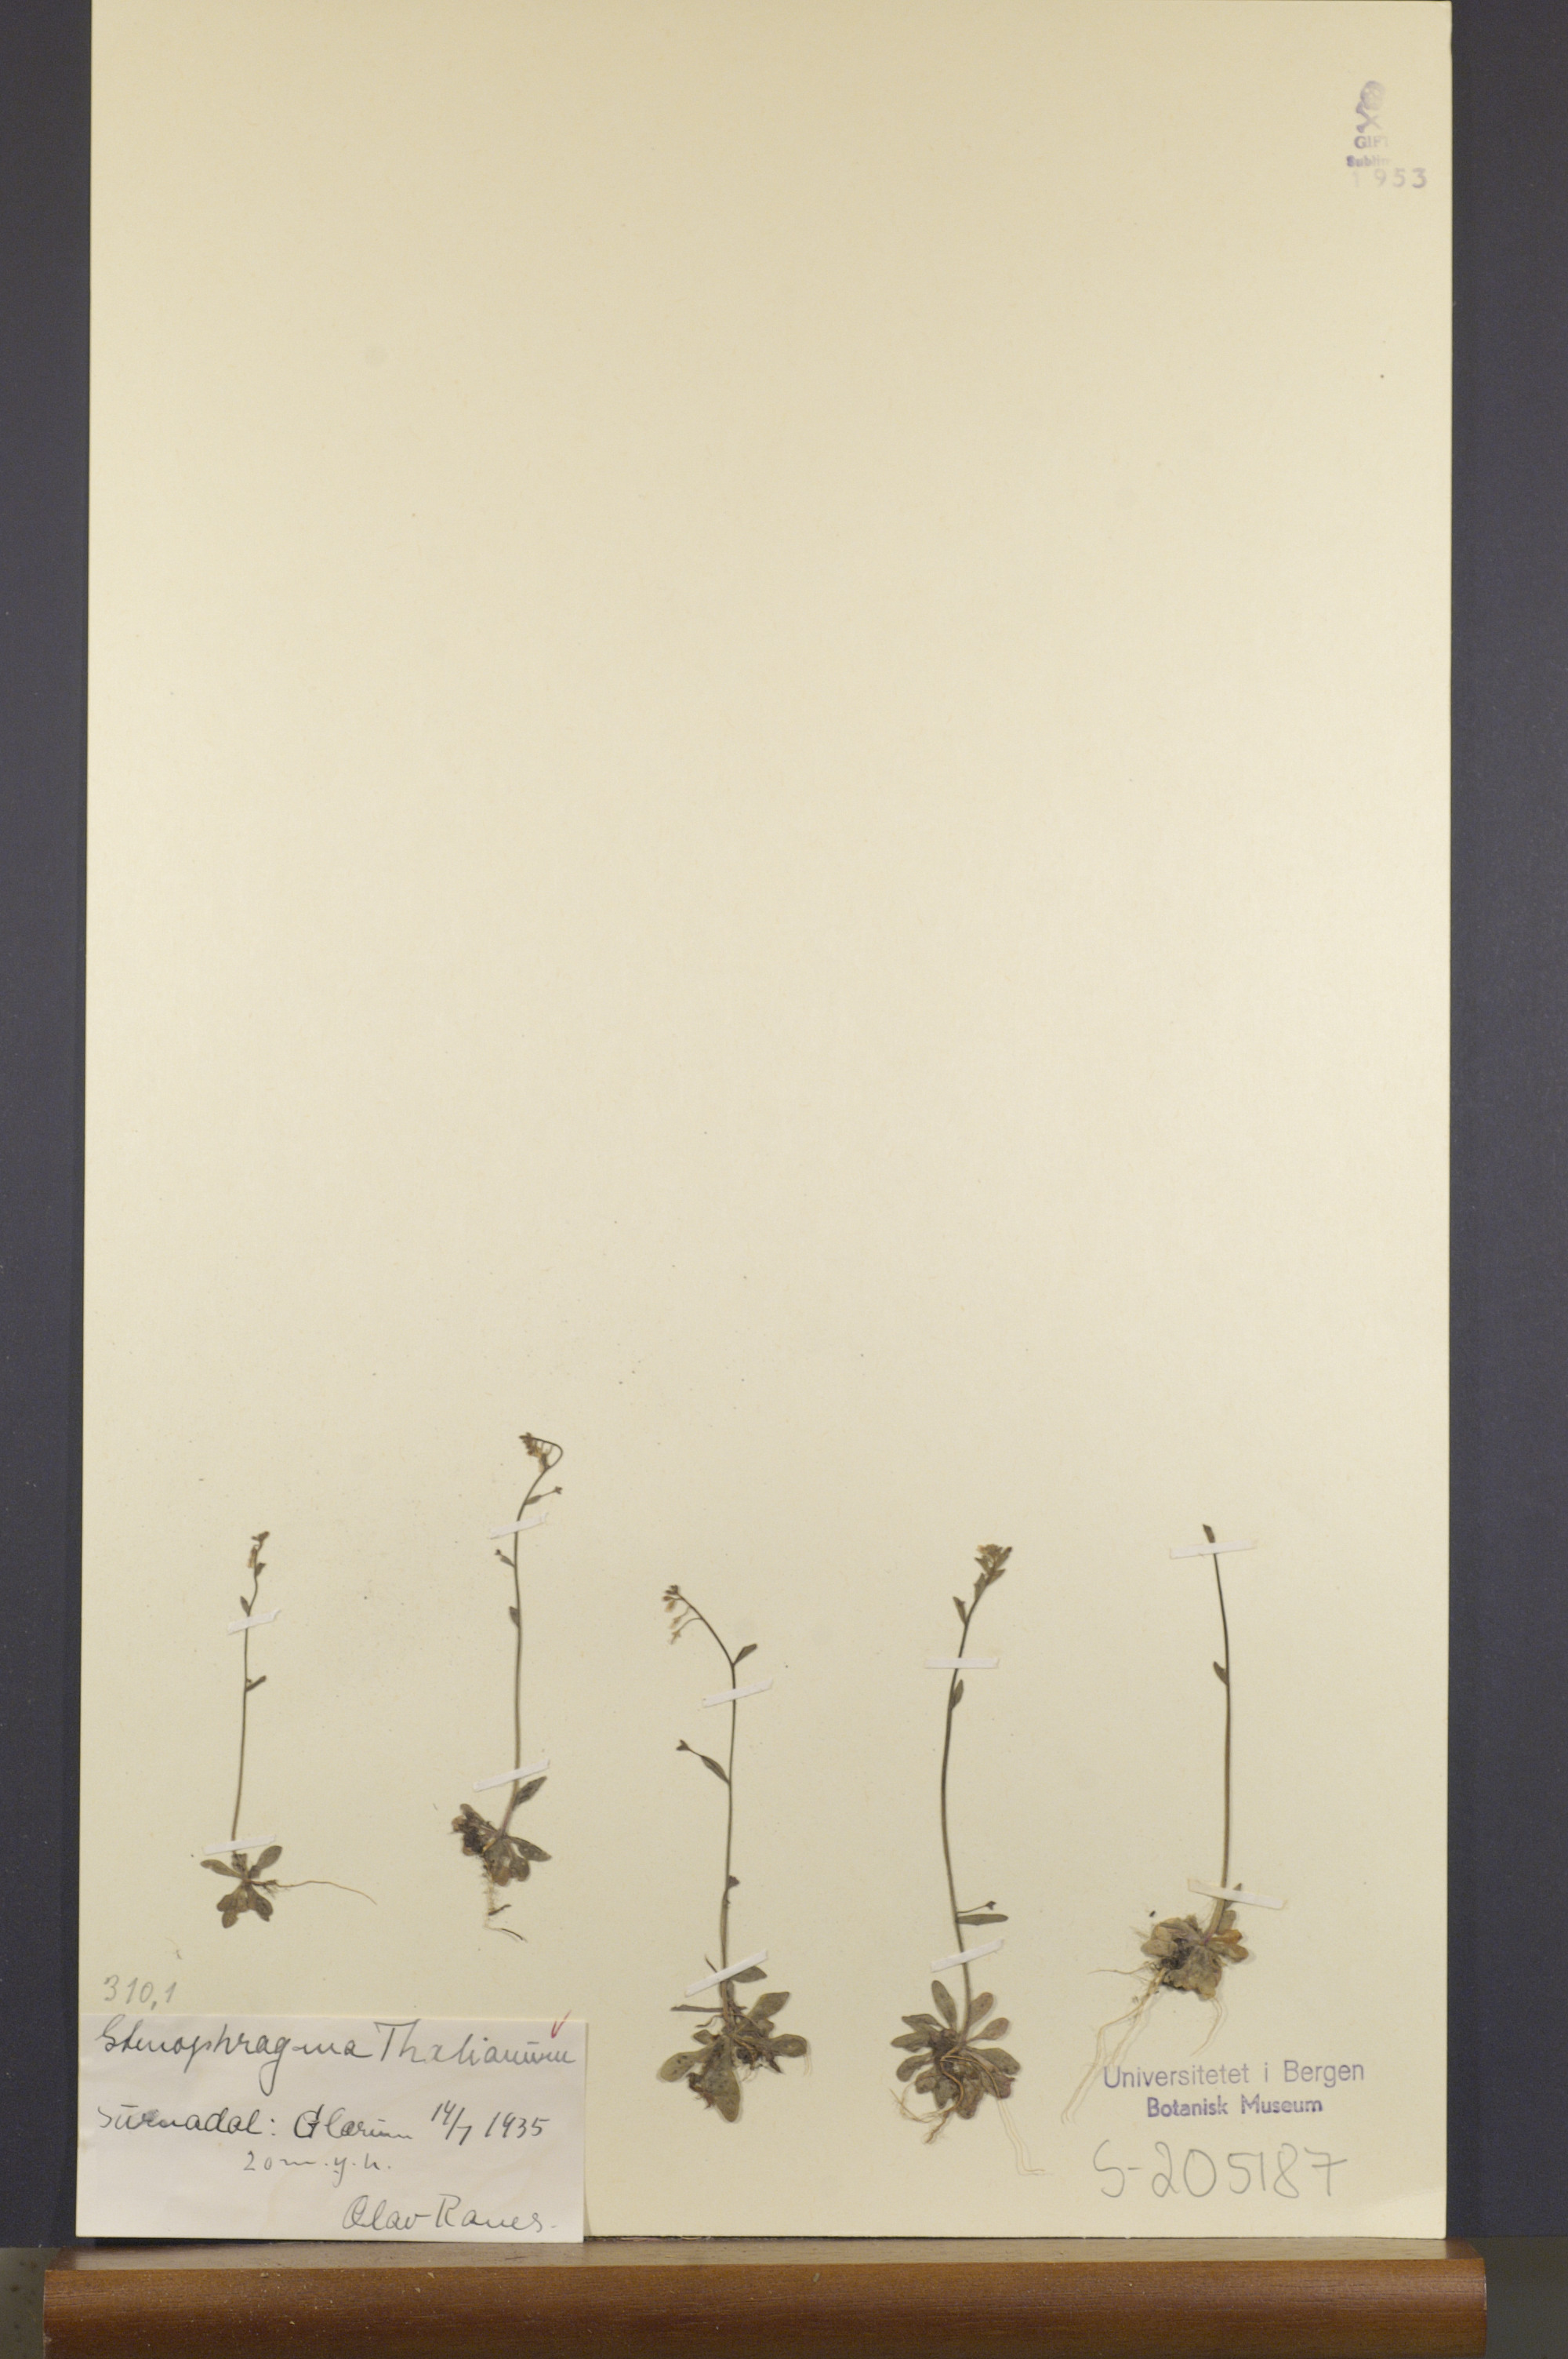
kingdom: Plantae
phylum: Tracheophyta
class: Magnoliopsida
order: Brassicales
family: Brassicaceae
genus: Arabidopsis
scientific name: Arabidopsis thaliana
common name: Thale cress
